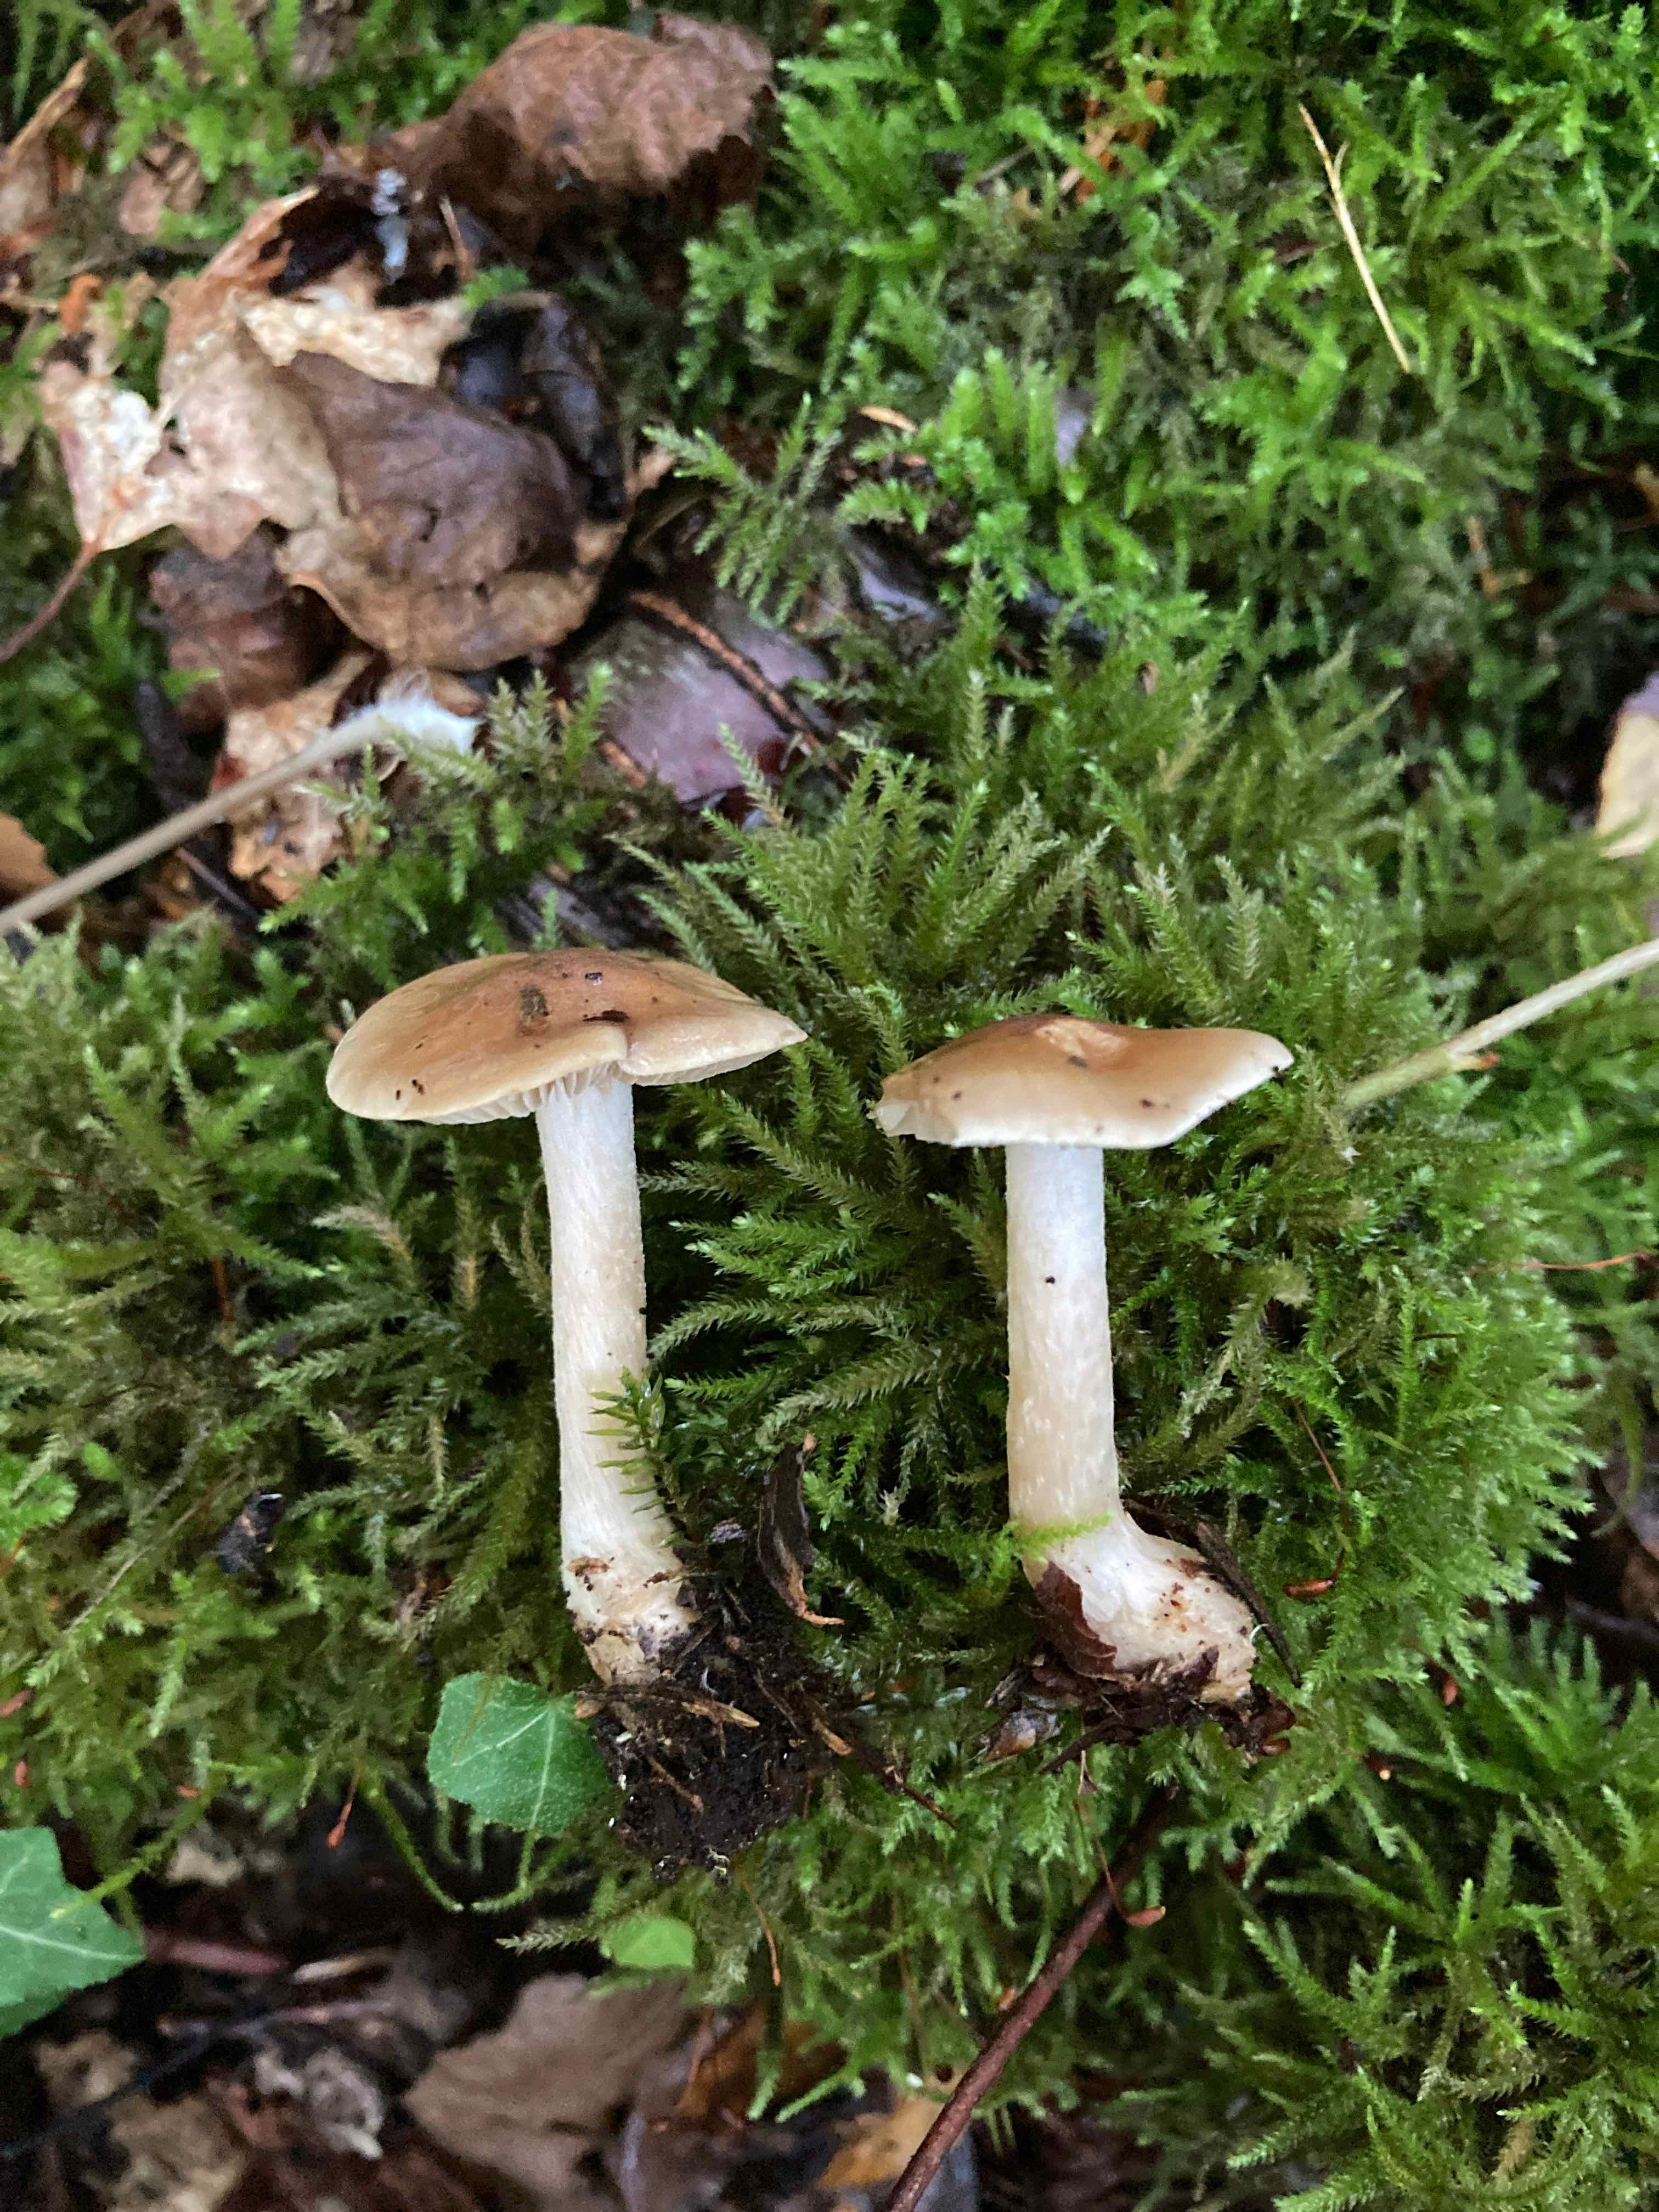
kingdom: Fungi
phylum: Basidiomycota
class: Agaricomycetes
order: Agaricales
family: Inocybaceae
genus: Inocybe
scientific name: Inocybe
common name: trævlhat
